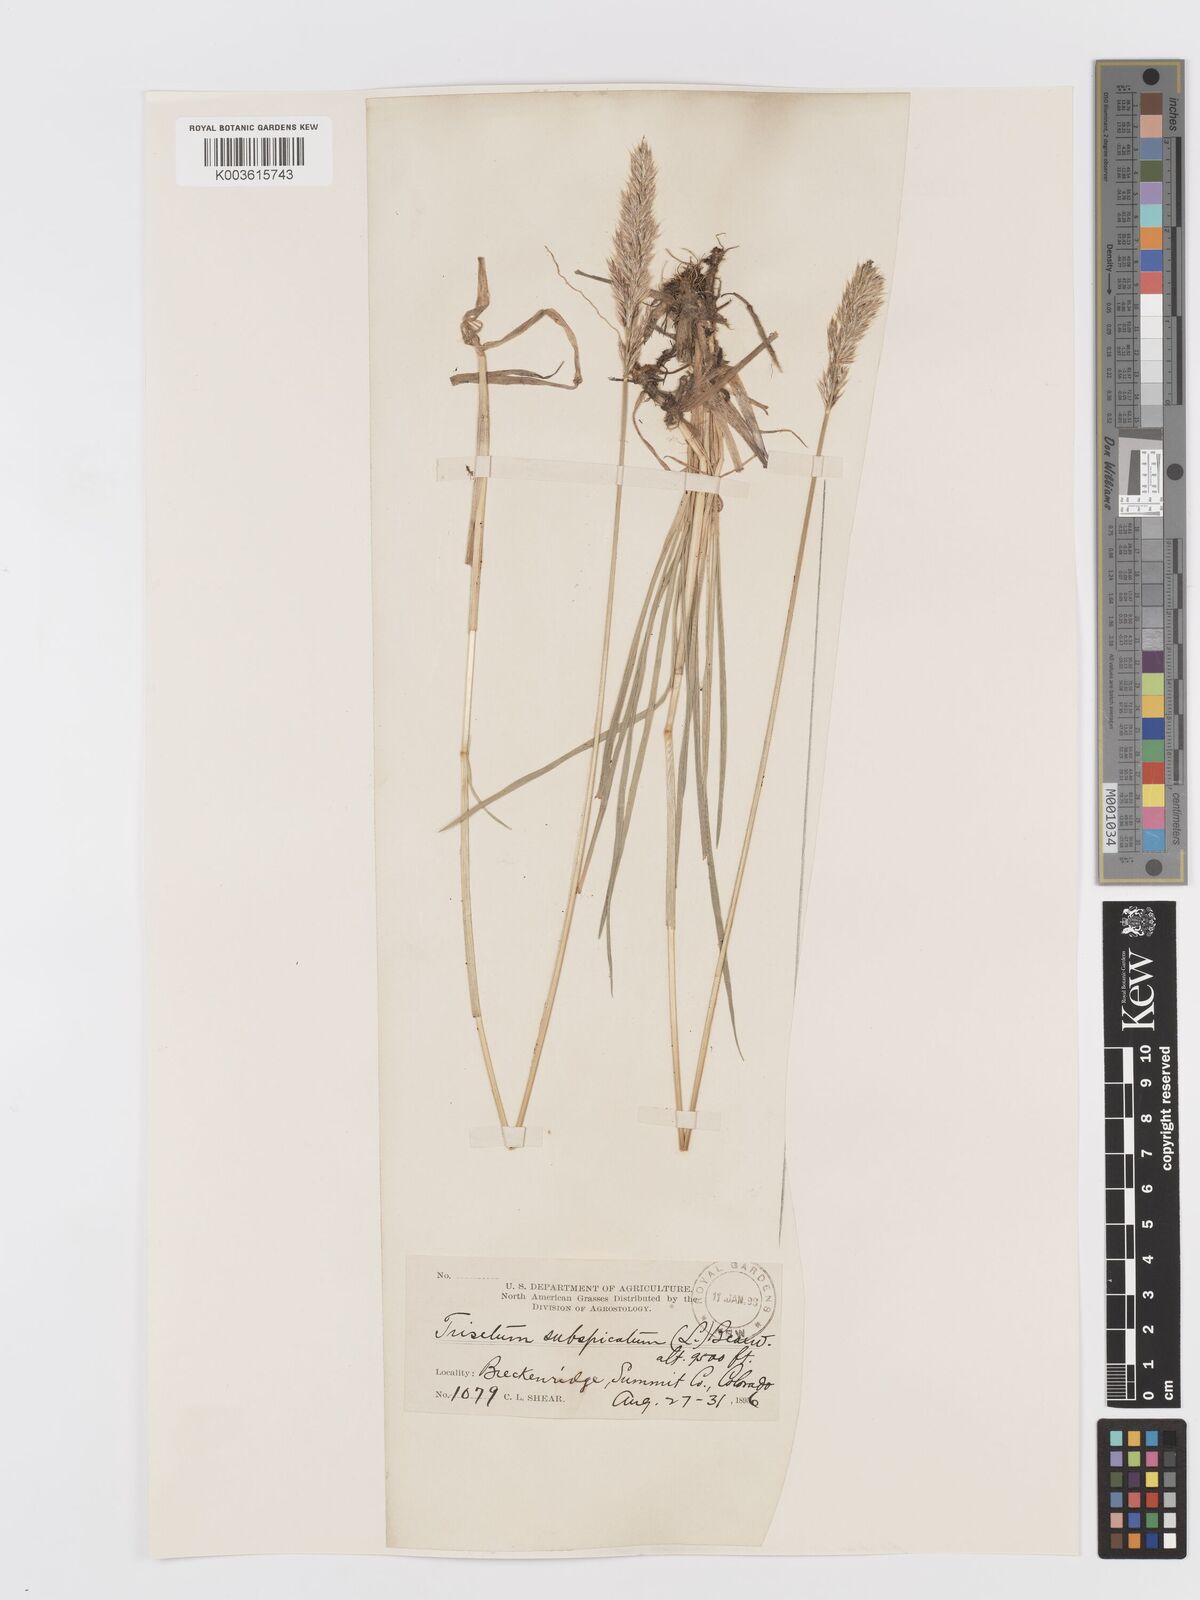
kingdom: Plantae
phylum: Tracheophyta
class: Liliopsida
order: Poales
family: Poaceae
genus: Koeleria
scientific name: Koeleria spicata
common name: Mountain trisetum
